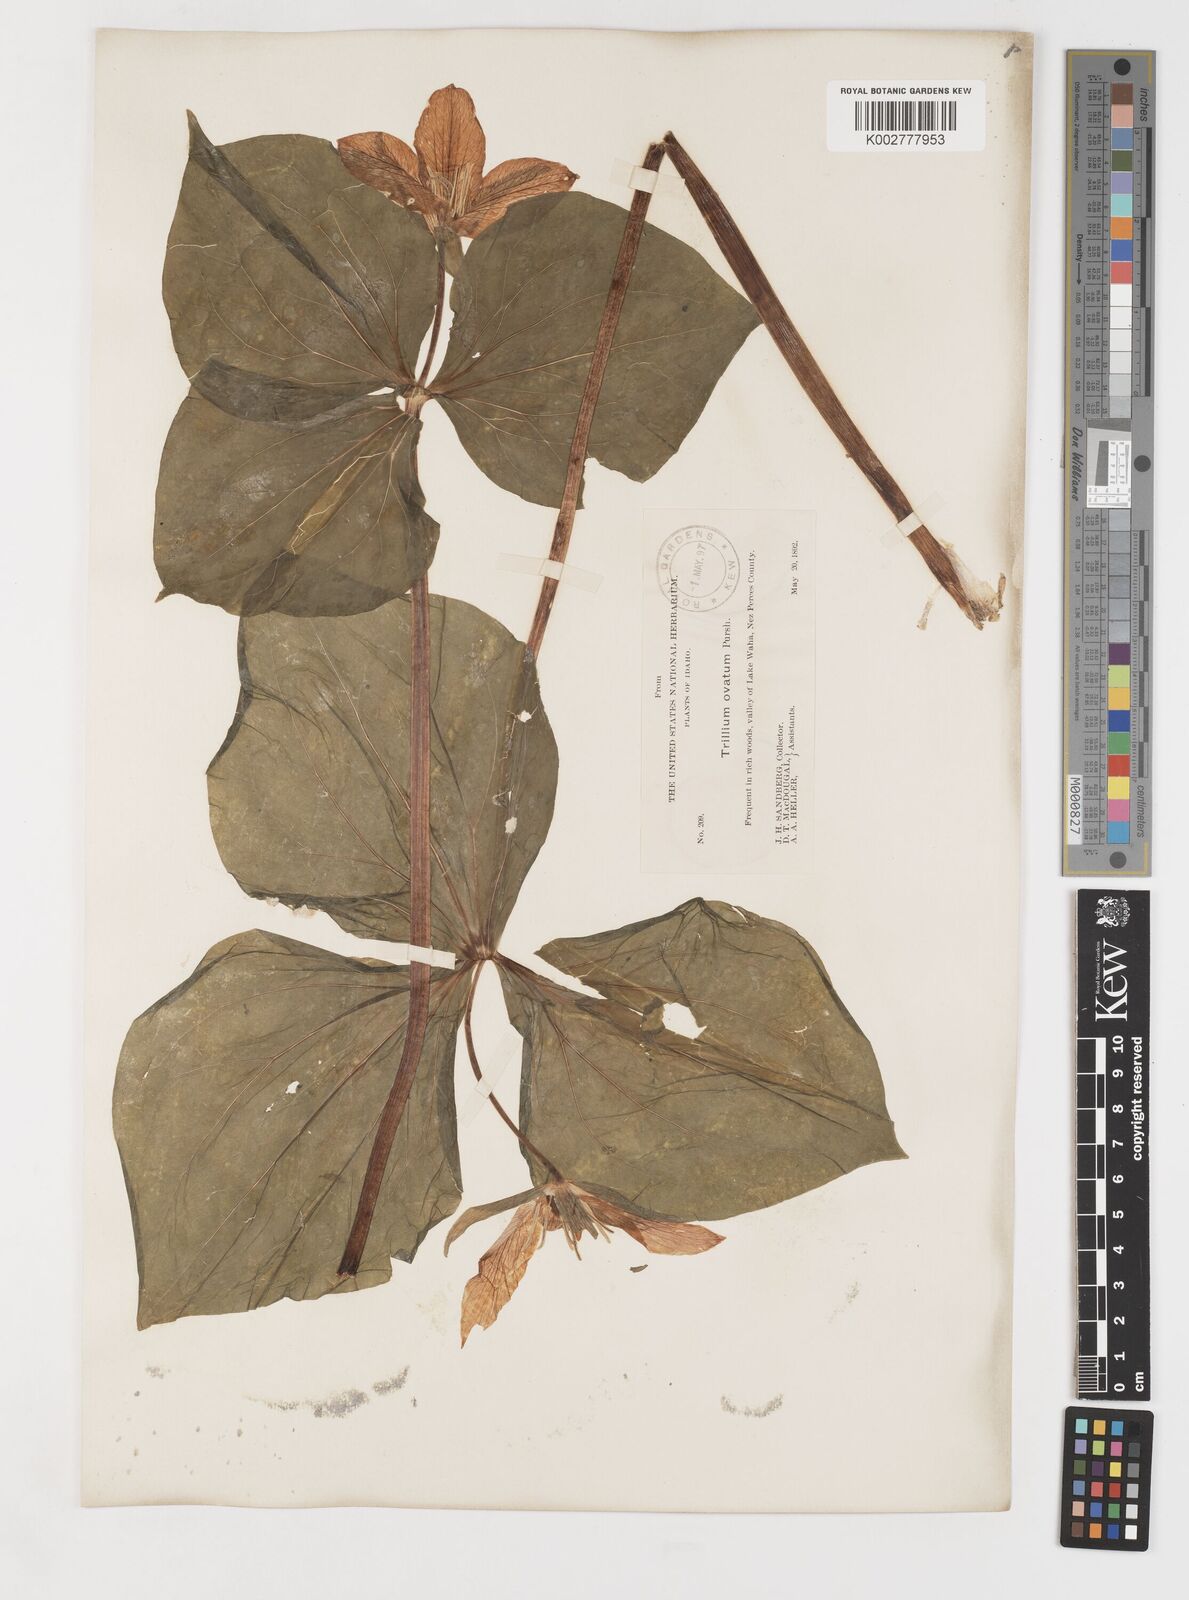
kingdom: Plantae
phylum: Tracheophyta
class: Liliopsida
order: Liliales
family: Melanthiaceae
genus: Trillium
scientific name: Trillium ovatum
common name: Pacific trillium
